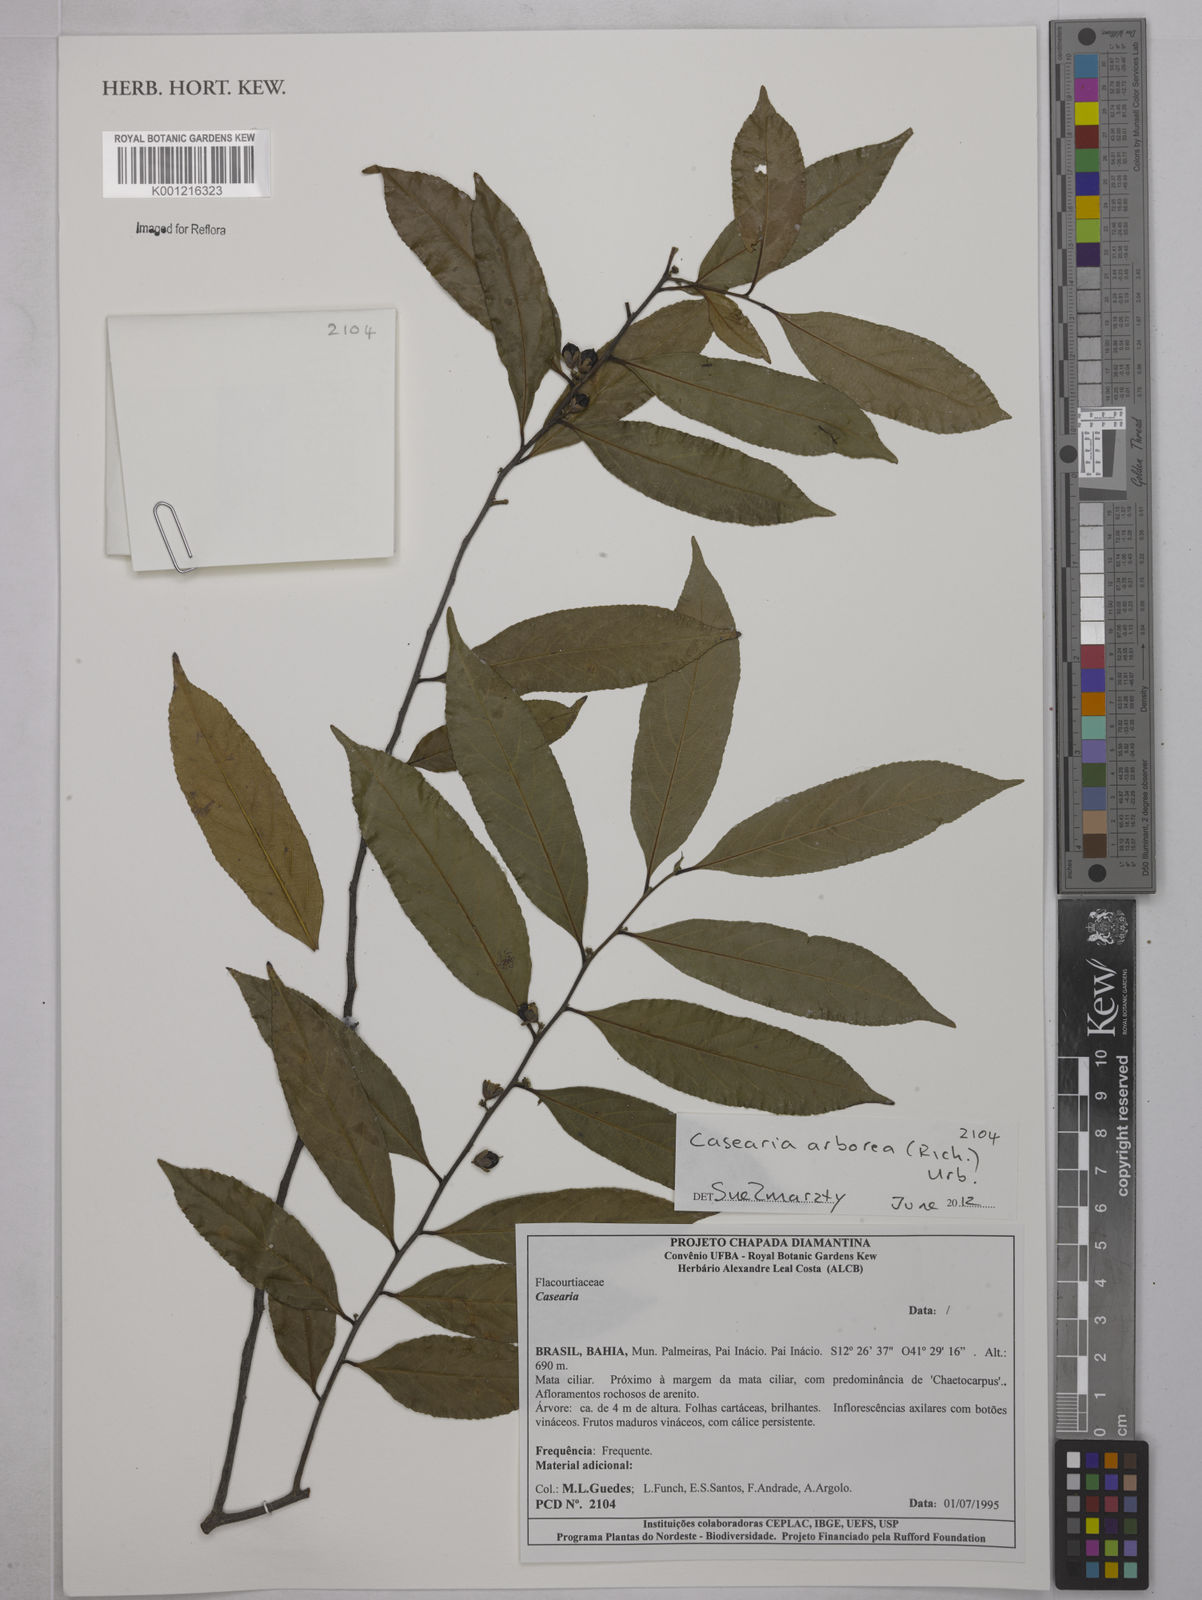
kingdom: Plantae
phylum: Tracheophyta
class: Magnoliopsida
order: Malpighiales
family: Salicaceae
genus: Casearia
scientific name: Casearia arborea
